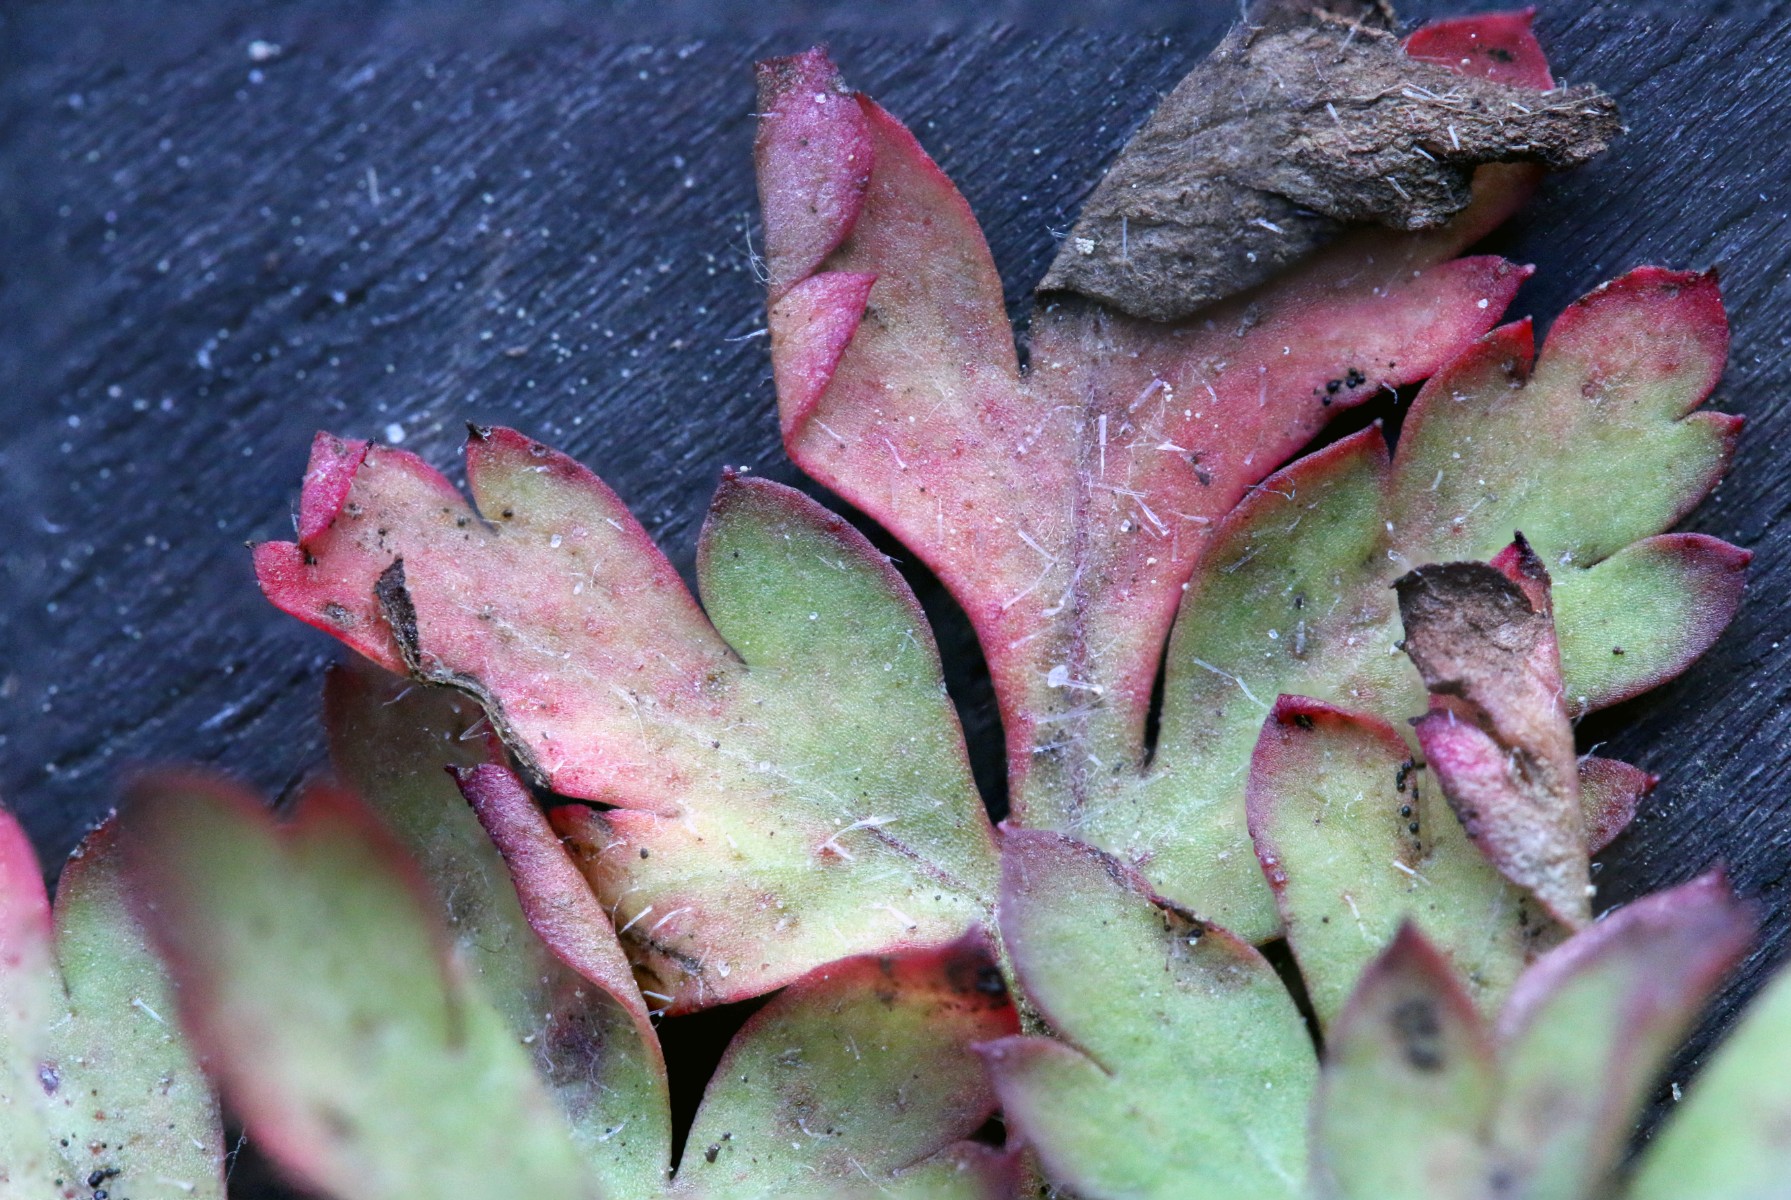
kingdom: Fungi
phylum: Ascomycota
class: Dothideomycetes
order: Venturiales
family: Venturiaceae
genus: Coleroa
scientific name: Coleroa robertiani
